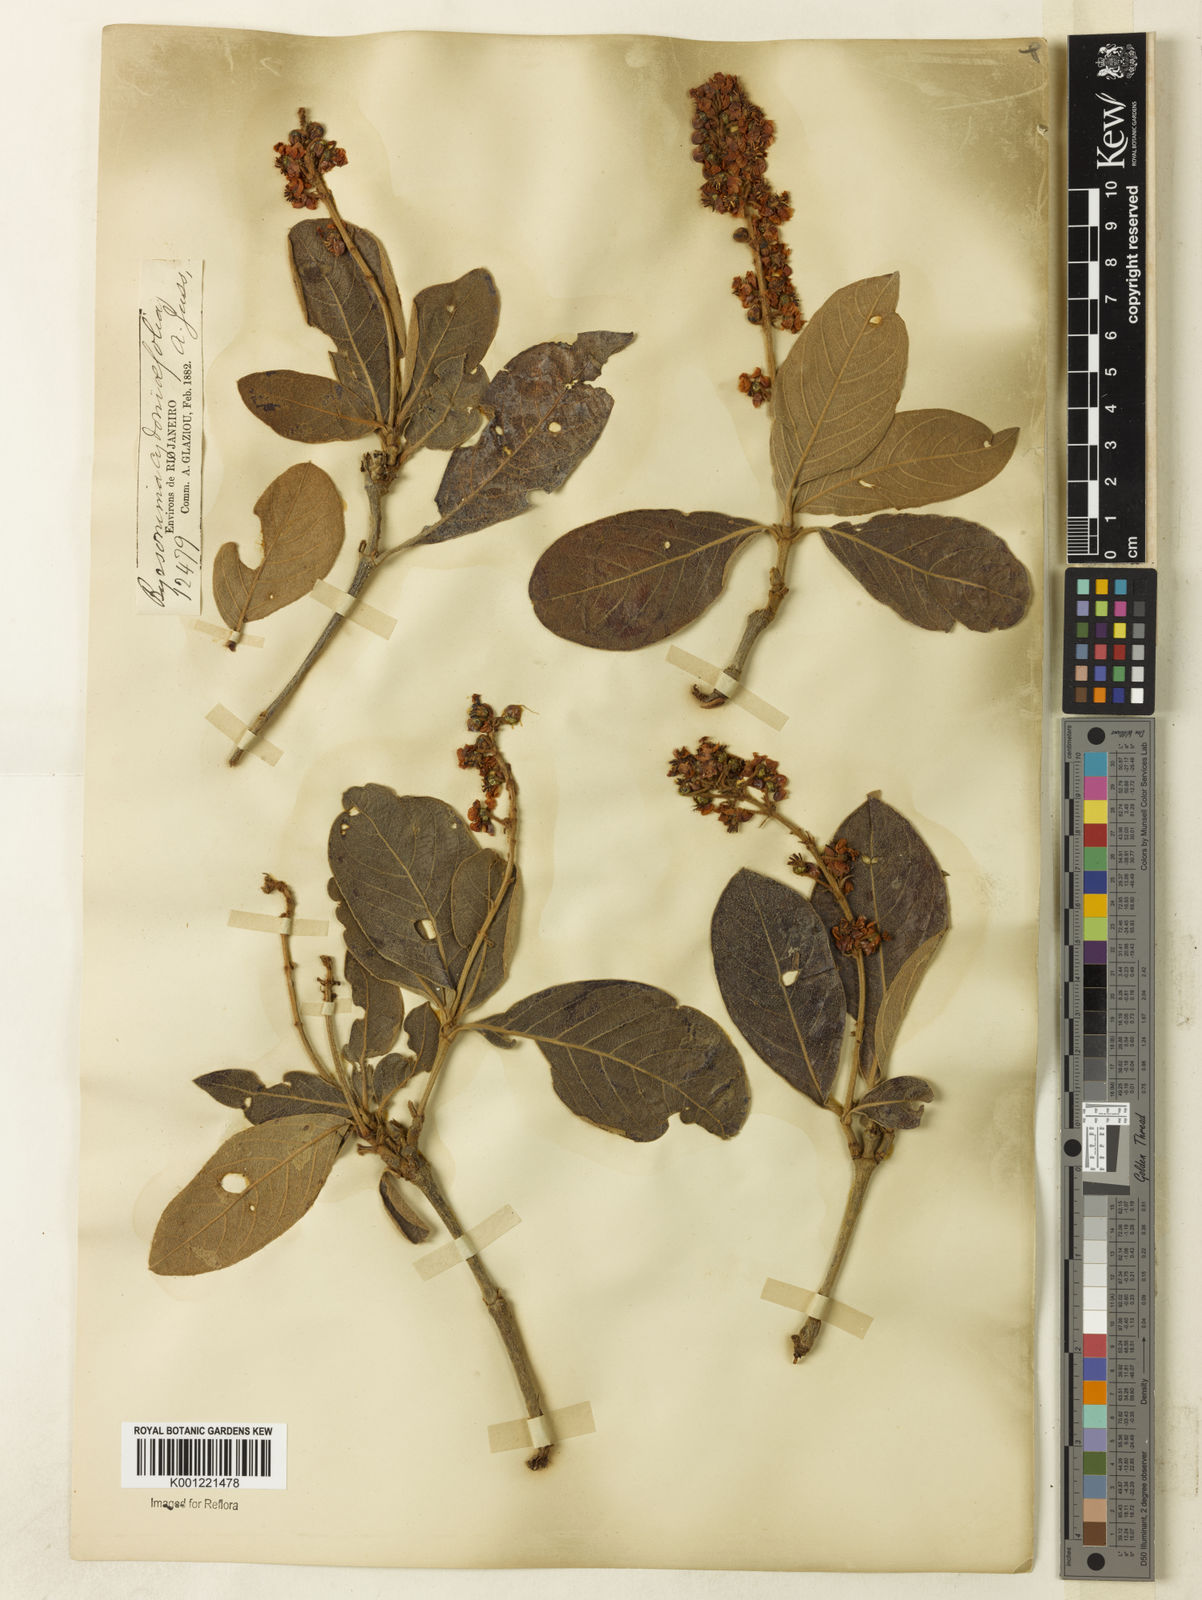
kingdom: Plantae
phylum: Tracheophyta
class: Magnoliopsida
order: Malpighiales
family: Malpighiaceae
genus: Byrsonima
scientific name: Byrsonima cydoniifolia
